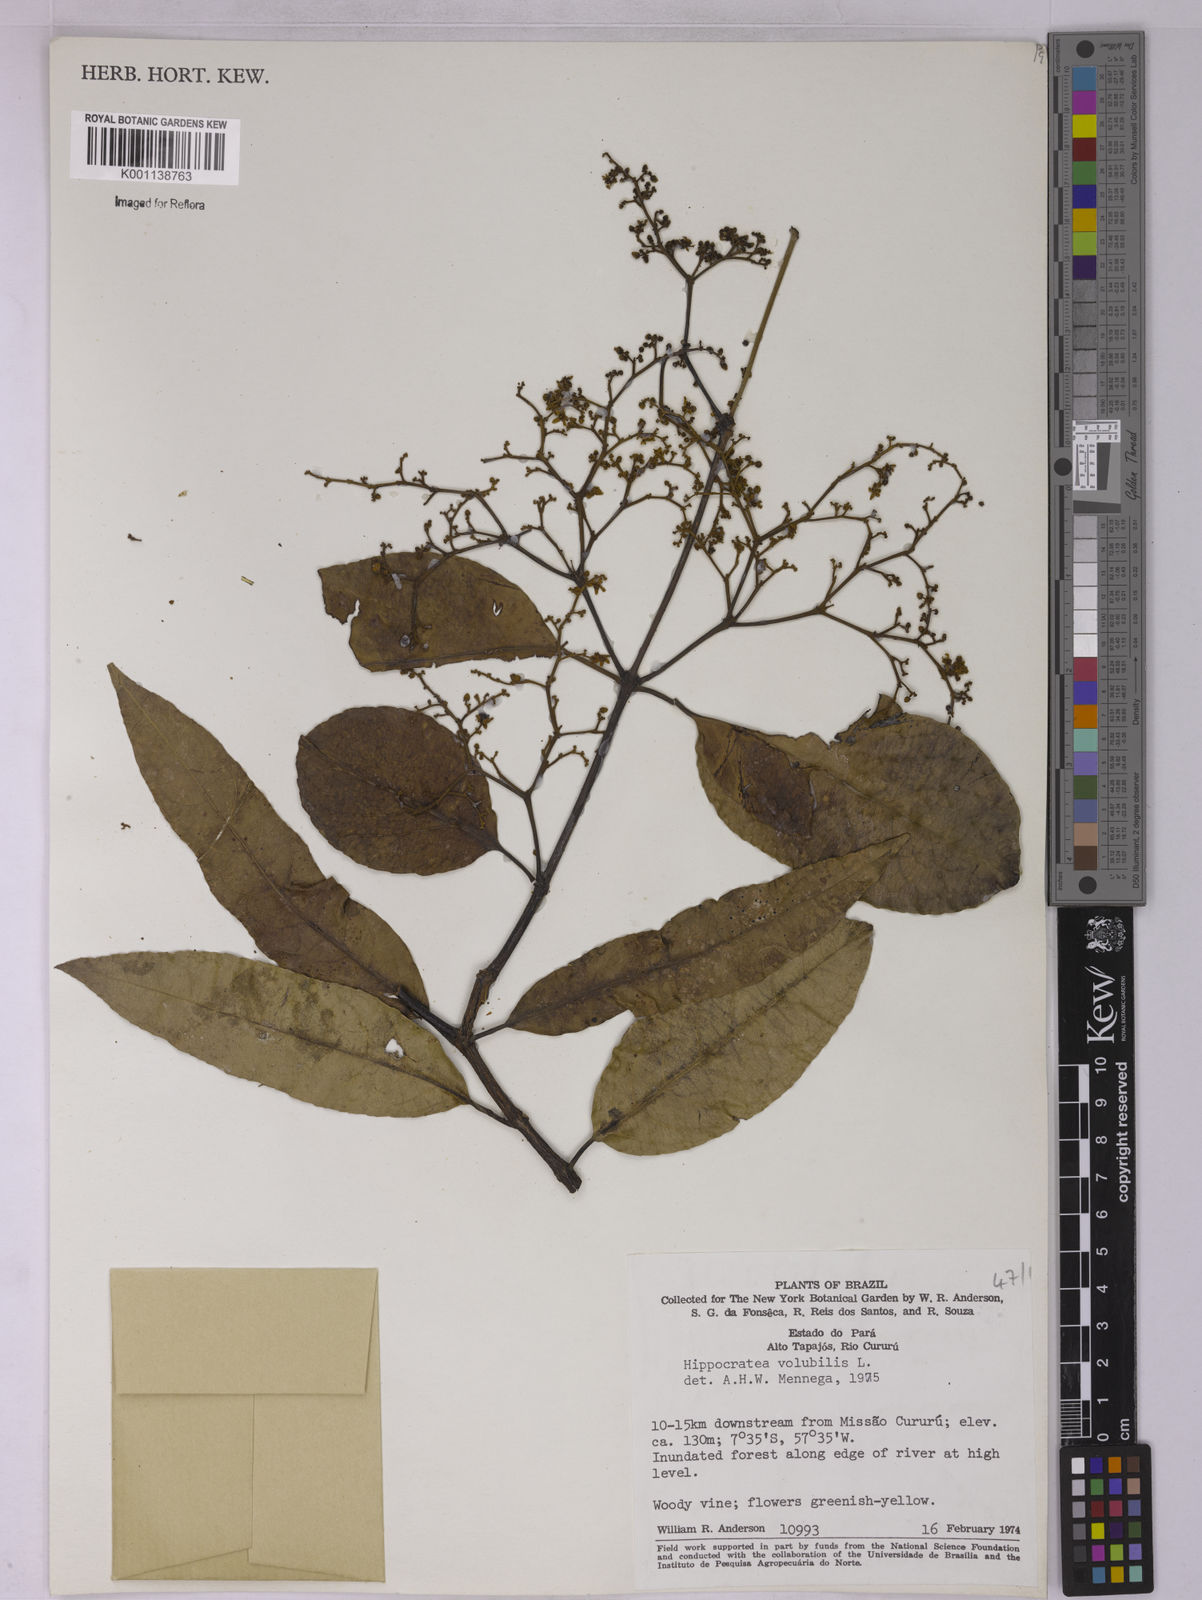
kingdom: Plantae
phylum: Tracheophyta
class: Magnoliopsida
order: Celastrales
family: Celastraceae
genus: Hippocratea
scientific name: Hippocratea volubilis
